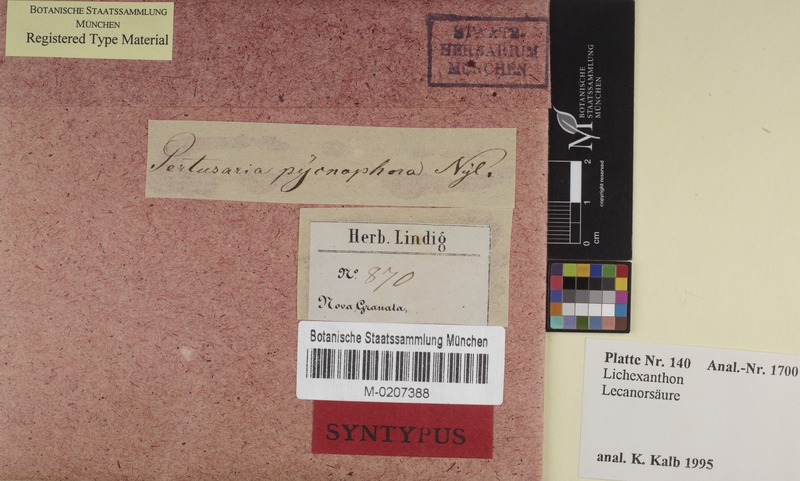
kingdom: Fungi
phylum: Ascomycota
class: Lecanoromycetes
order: Pertusariales
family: Pertusariaceae
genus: Pertusaria
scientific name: Pertusaria pycnophora
